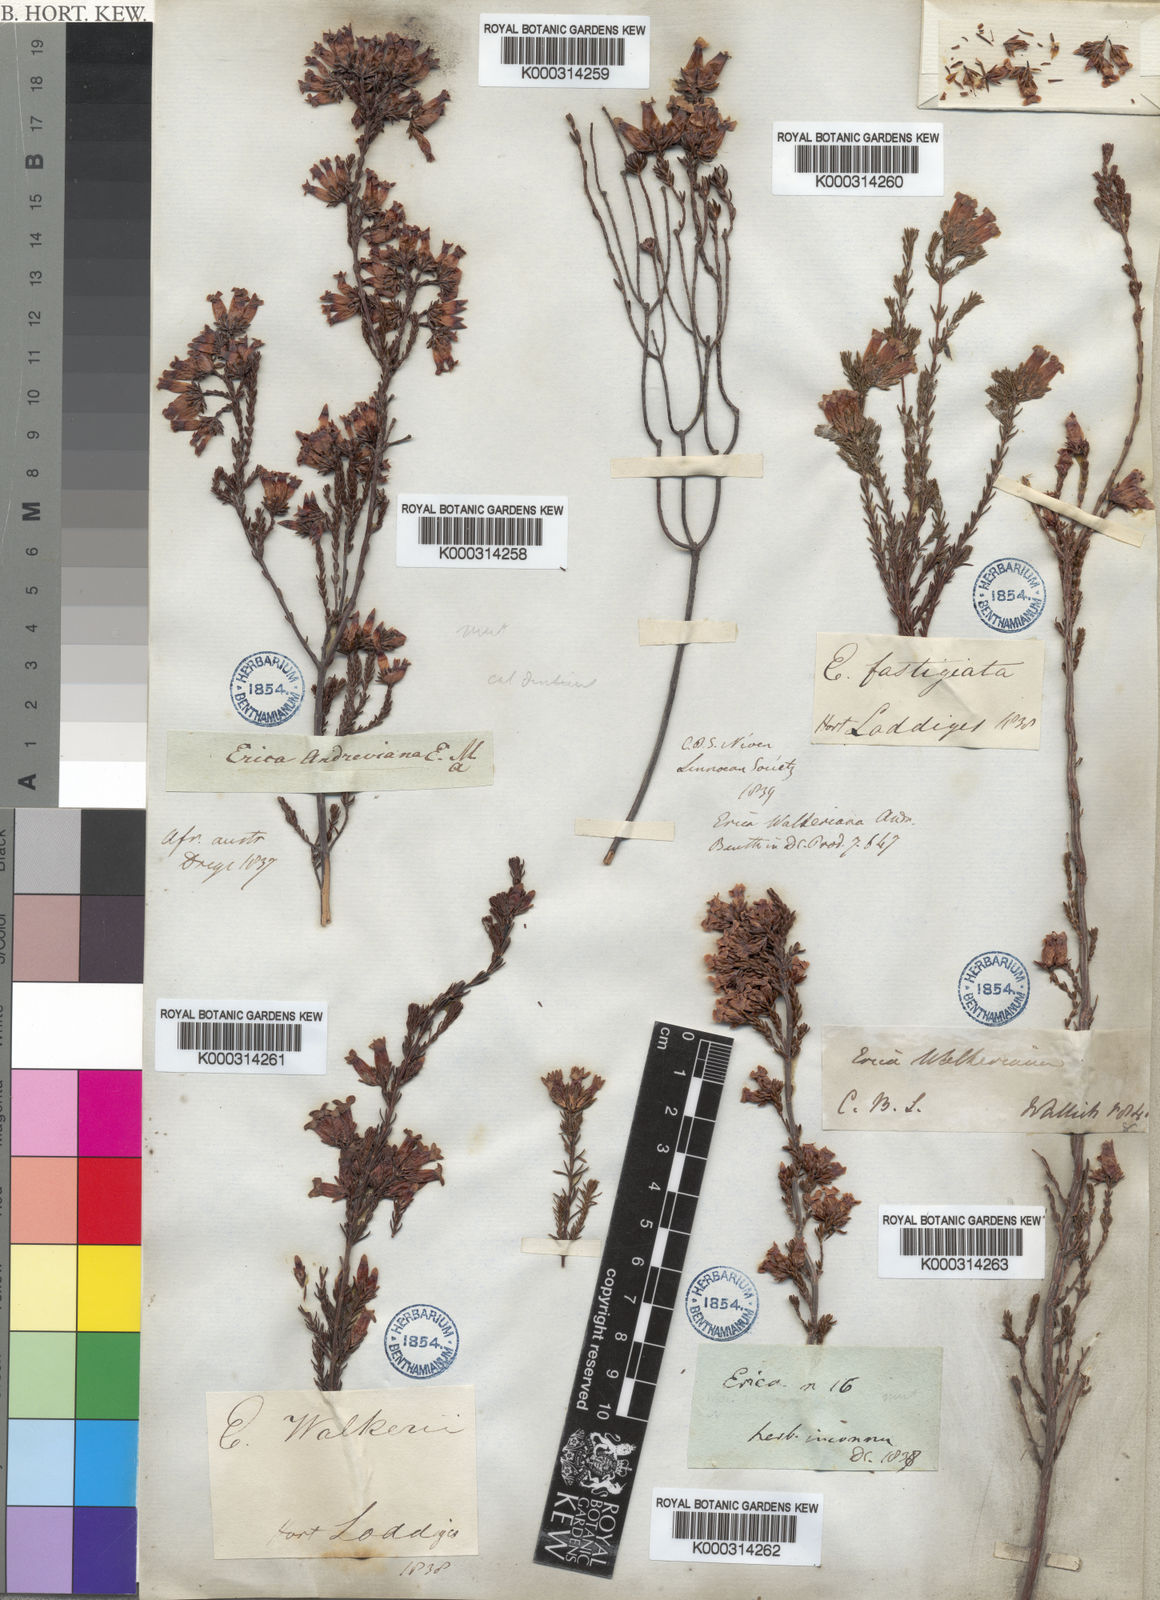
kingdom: Plantae
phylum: Tracheophyta
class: Magnoliopsida
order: Ericales
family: Ericaceae
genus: Erica
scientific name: Erica walkeria
